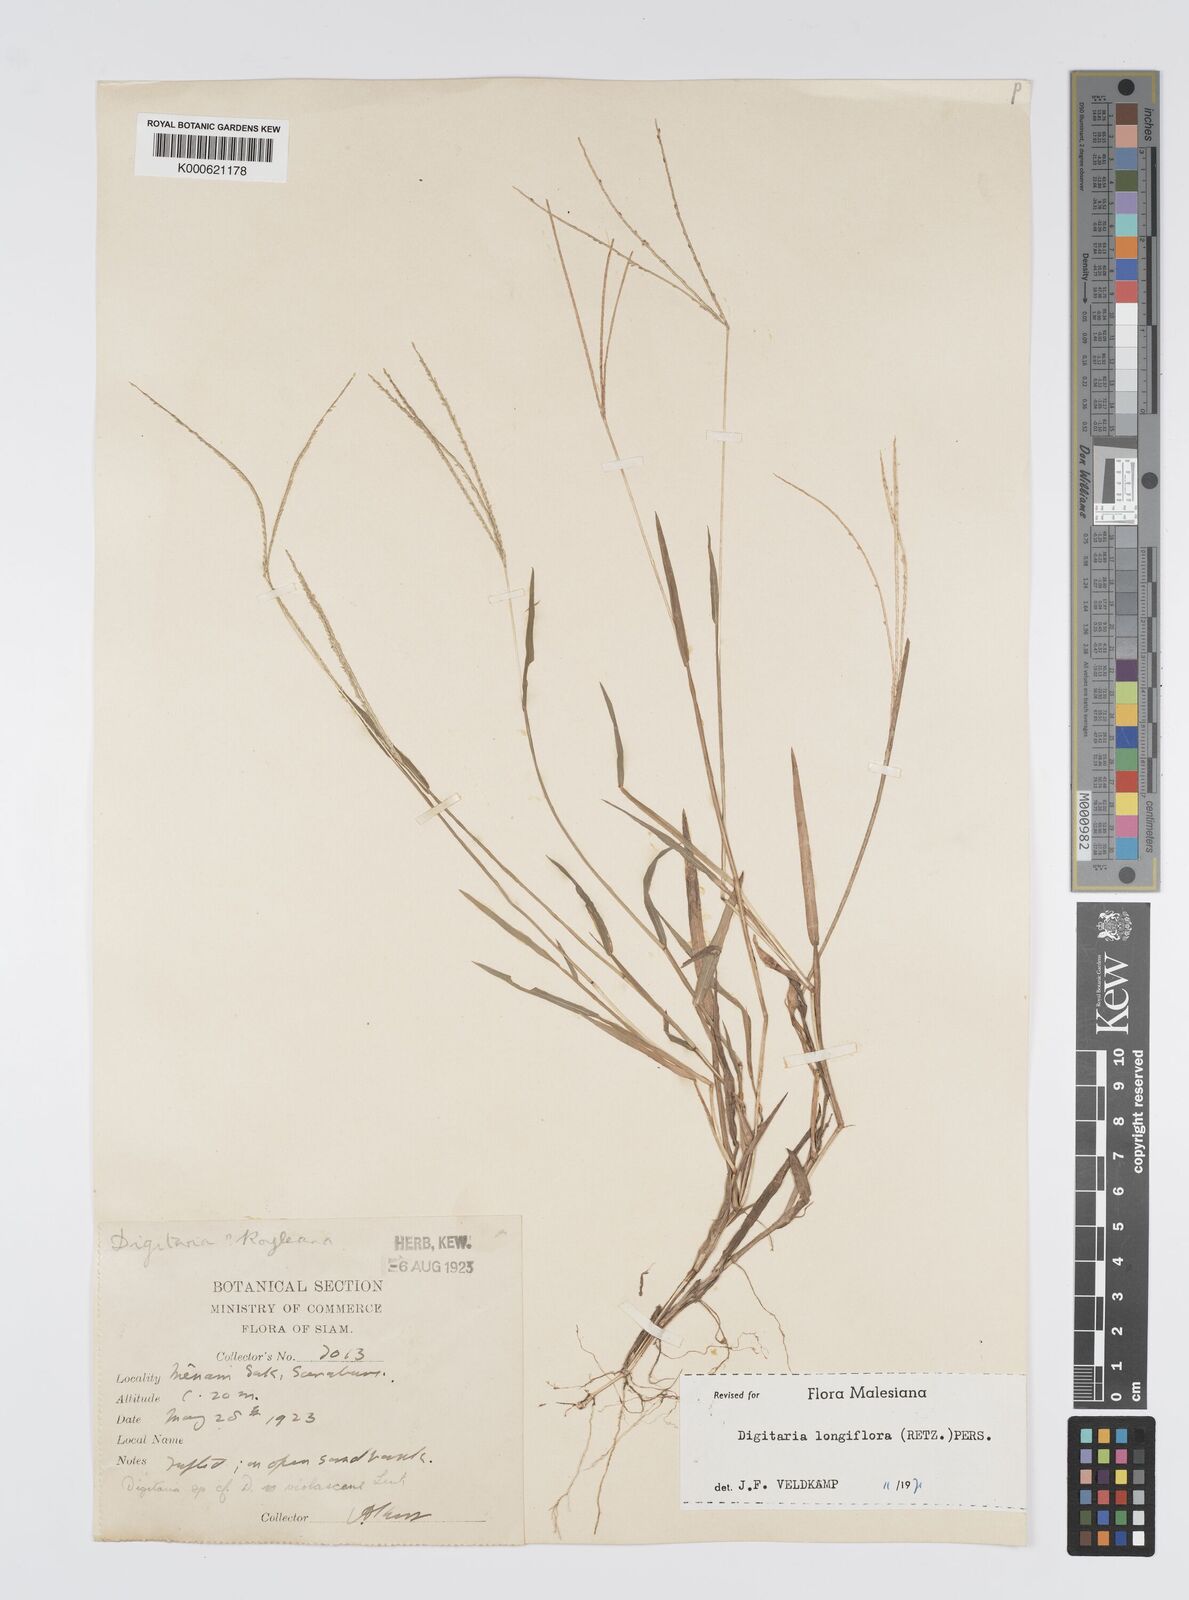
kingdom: Plantae
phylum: Tracheophyta
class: Liliopsida
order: Poales
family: Poaceae
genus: Digitaria
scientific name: Digitaria longiflora
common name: Wire crabgrass
